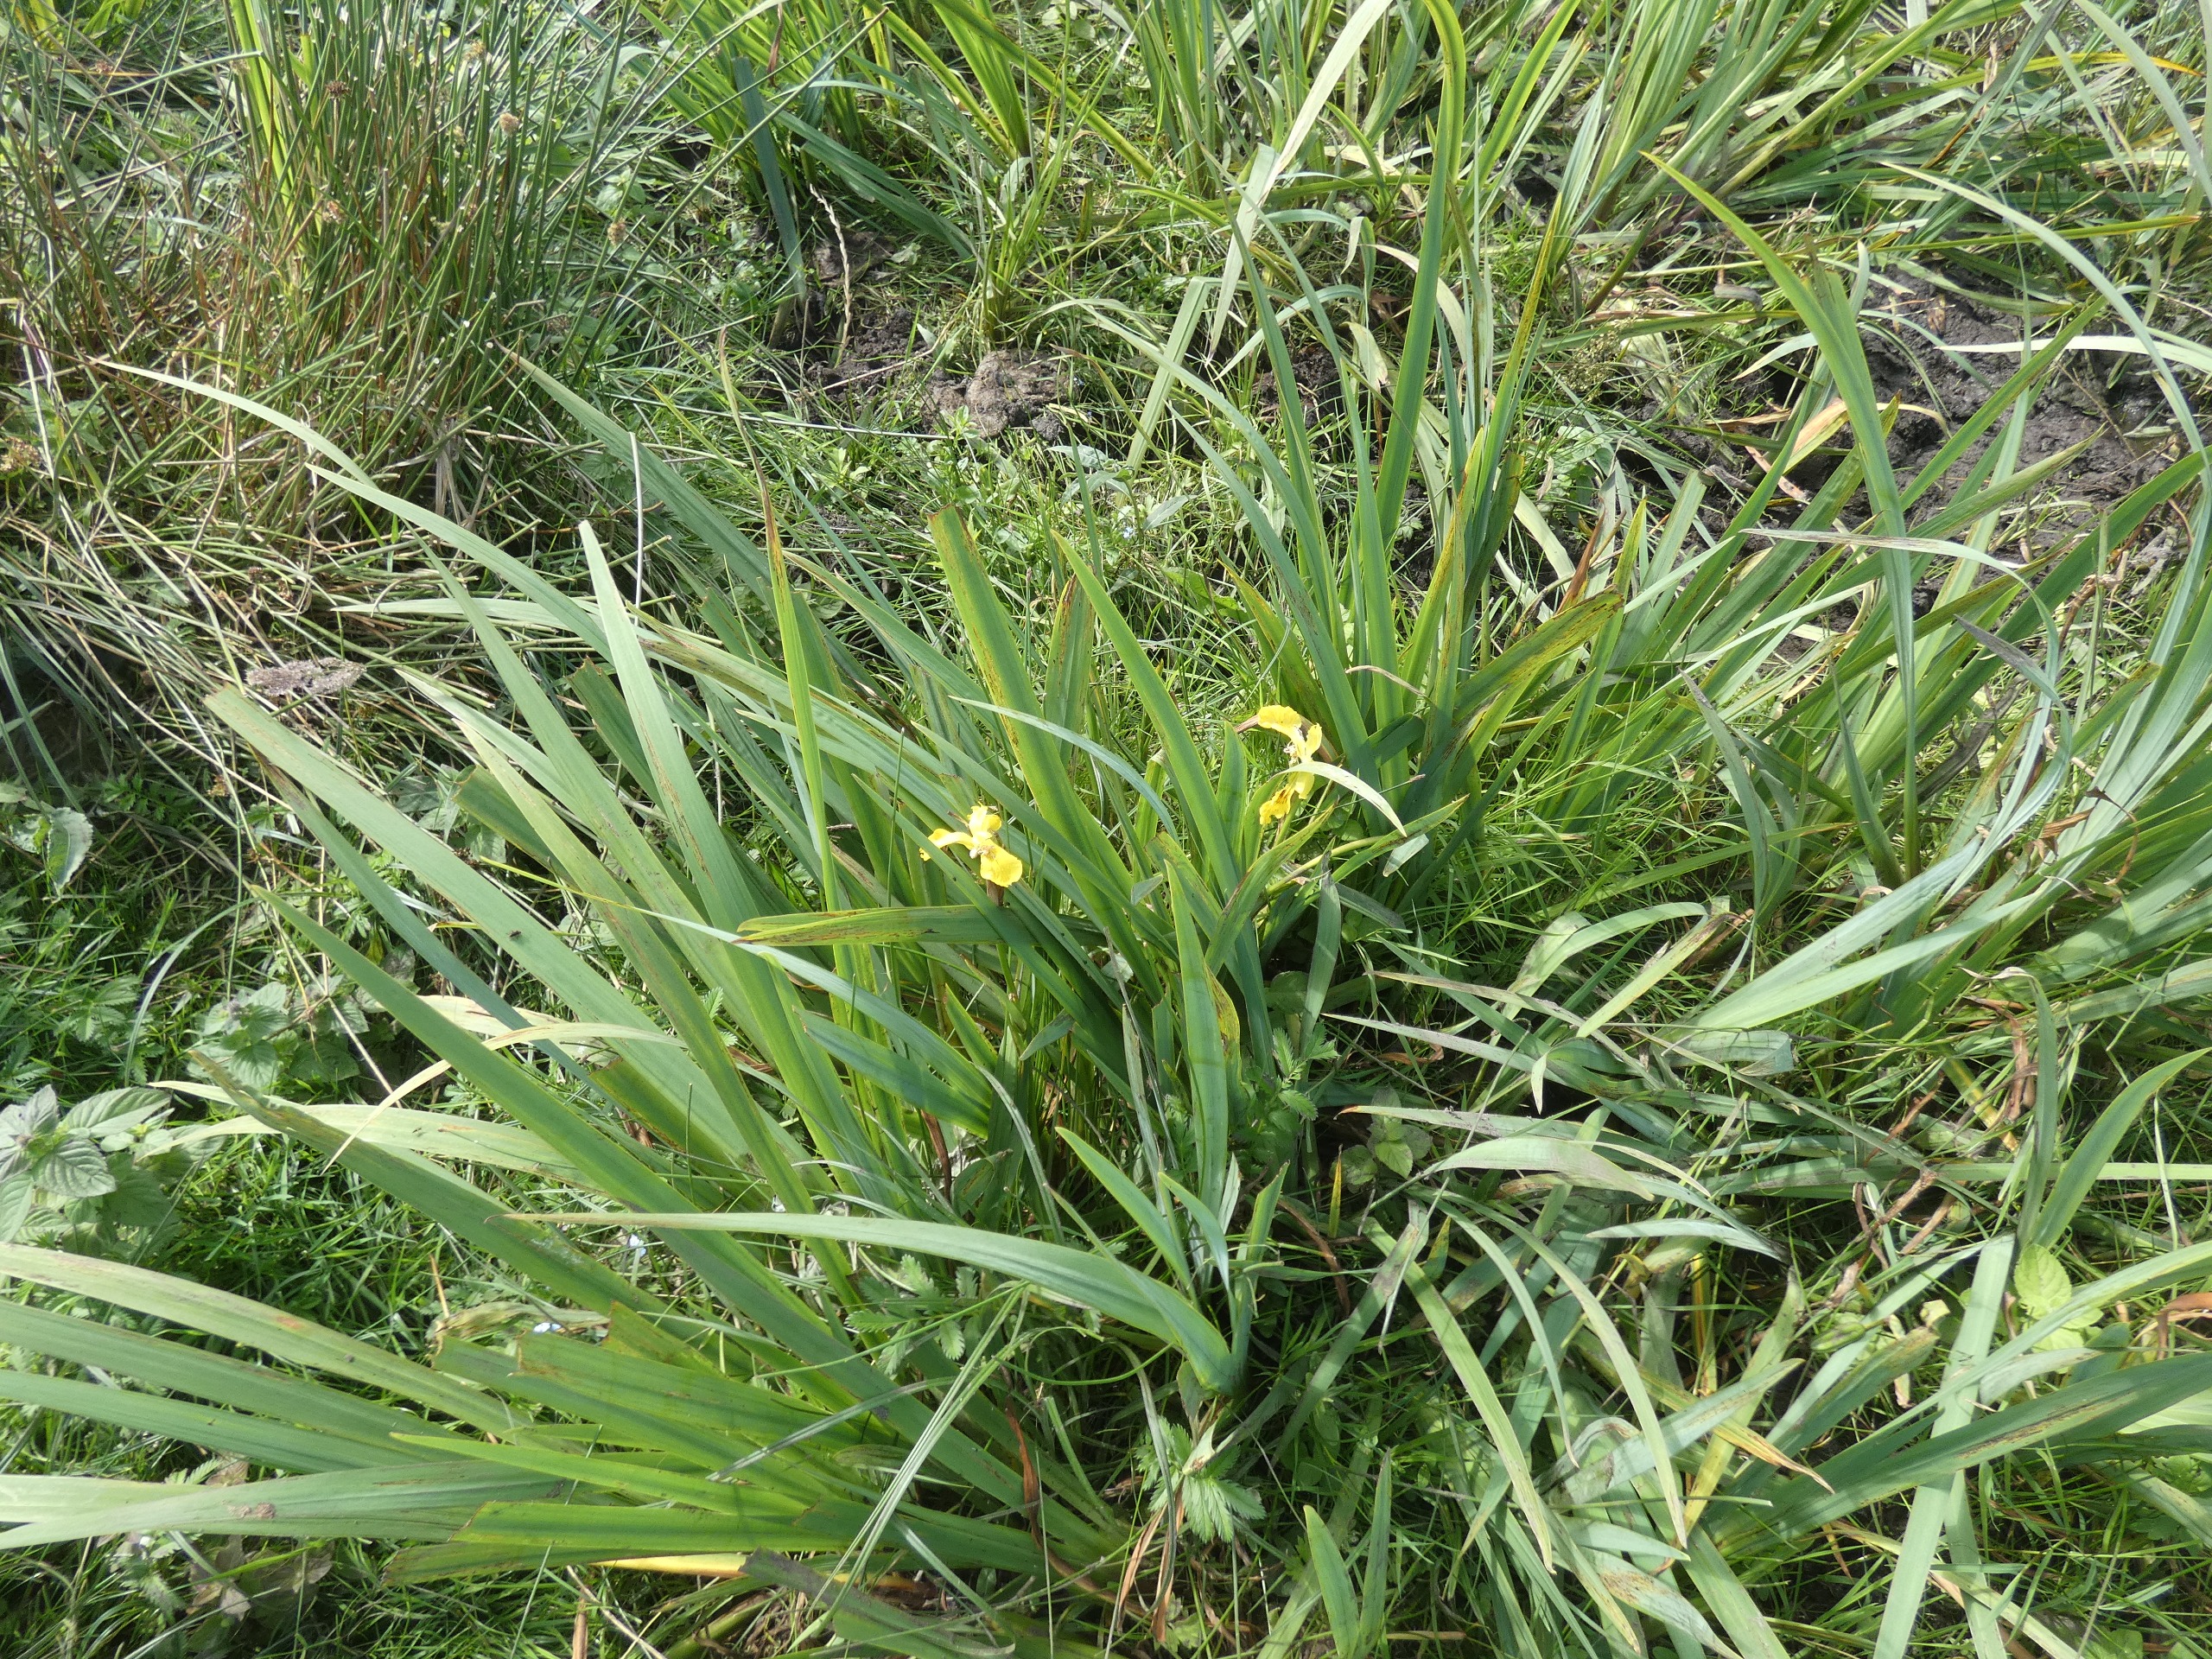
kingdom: Plantae
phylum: Tracheophyta
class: Liliopsida
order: Asparagales
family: Iridaceae
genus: Iris
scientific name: Iris pseudacorus
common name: Gul iris
